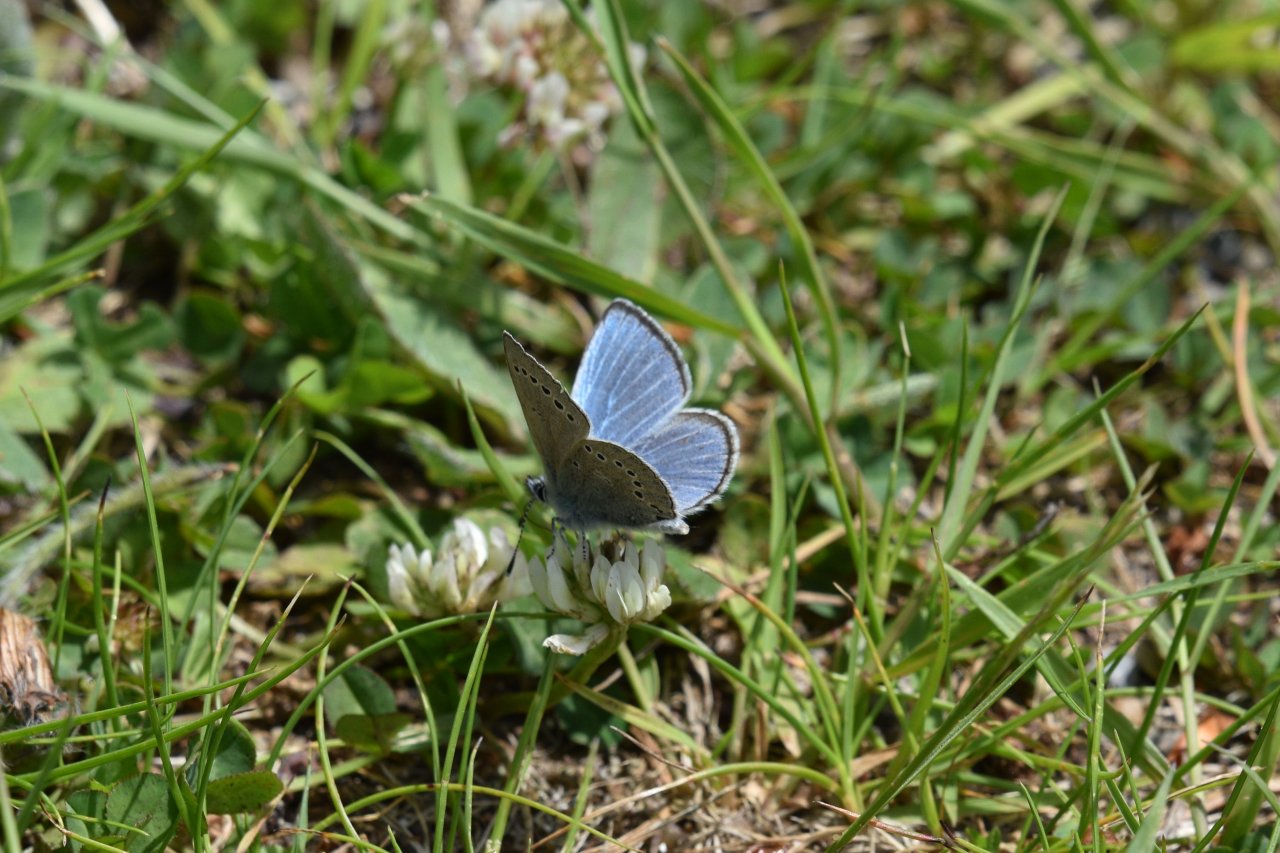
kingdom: Animalia
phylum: Arthropoda
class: Insecta
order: Lepidoptera
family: Lycaenidae
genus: Glaucopsyche
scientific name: Glaucopsyche lygdamus
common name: Silvery Blue
